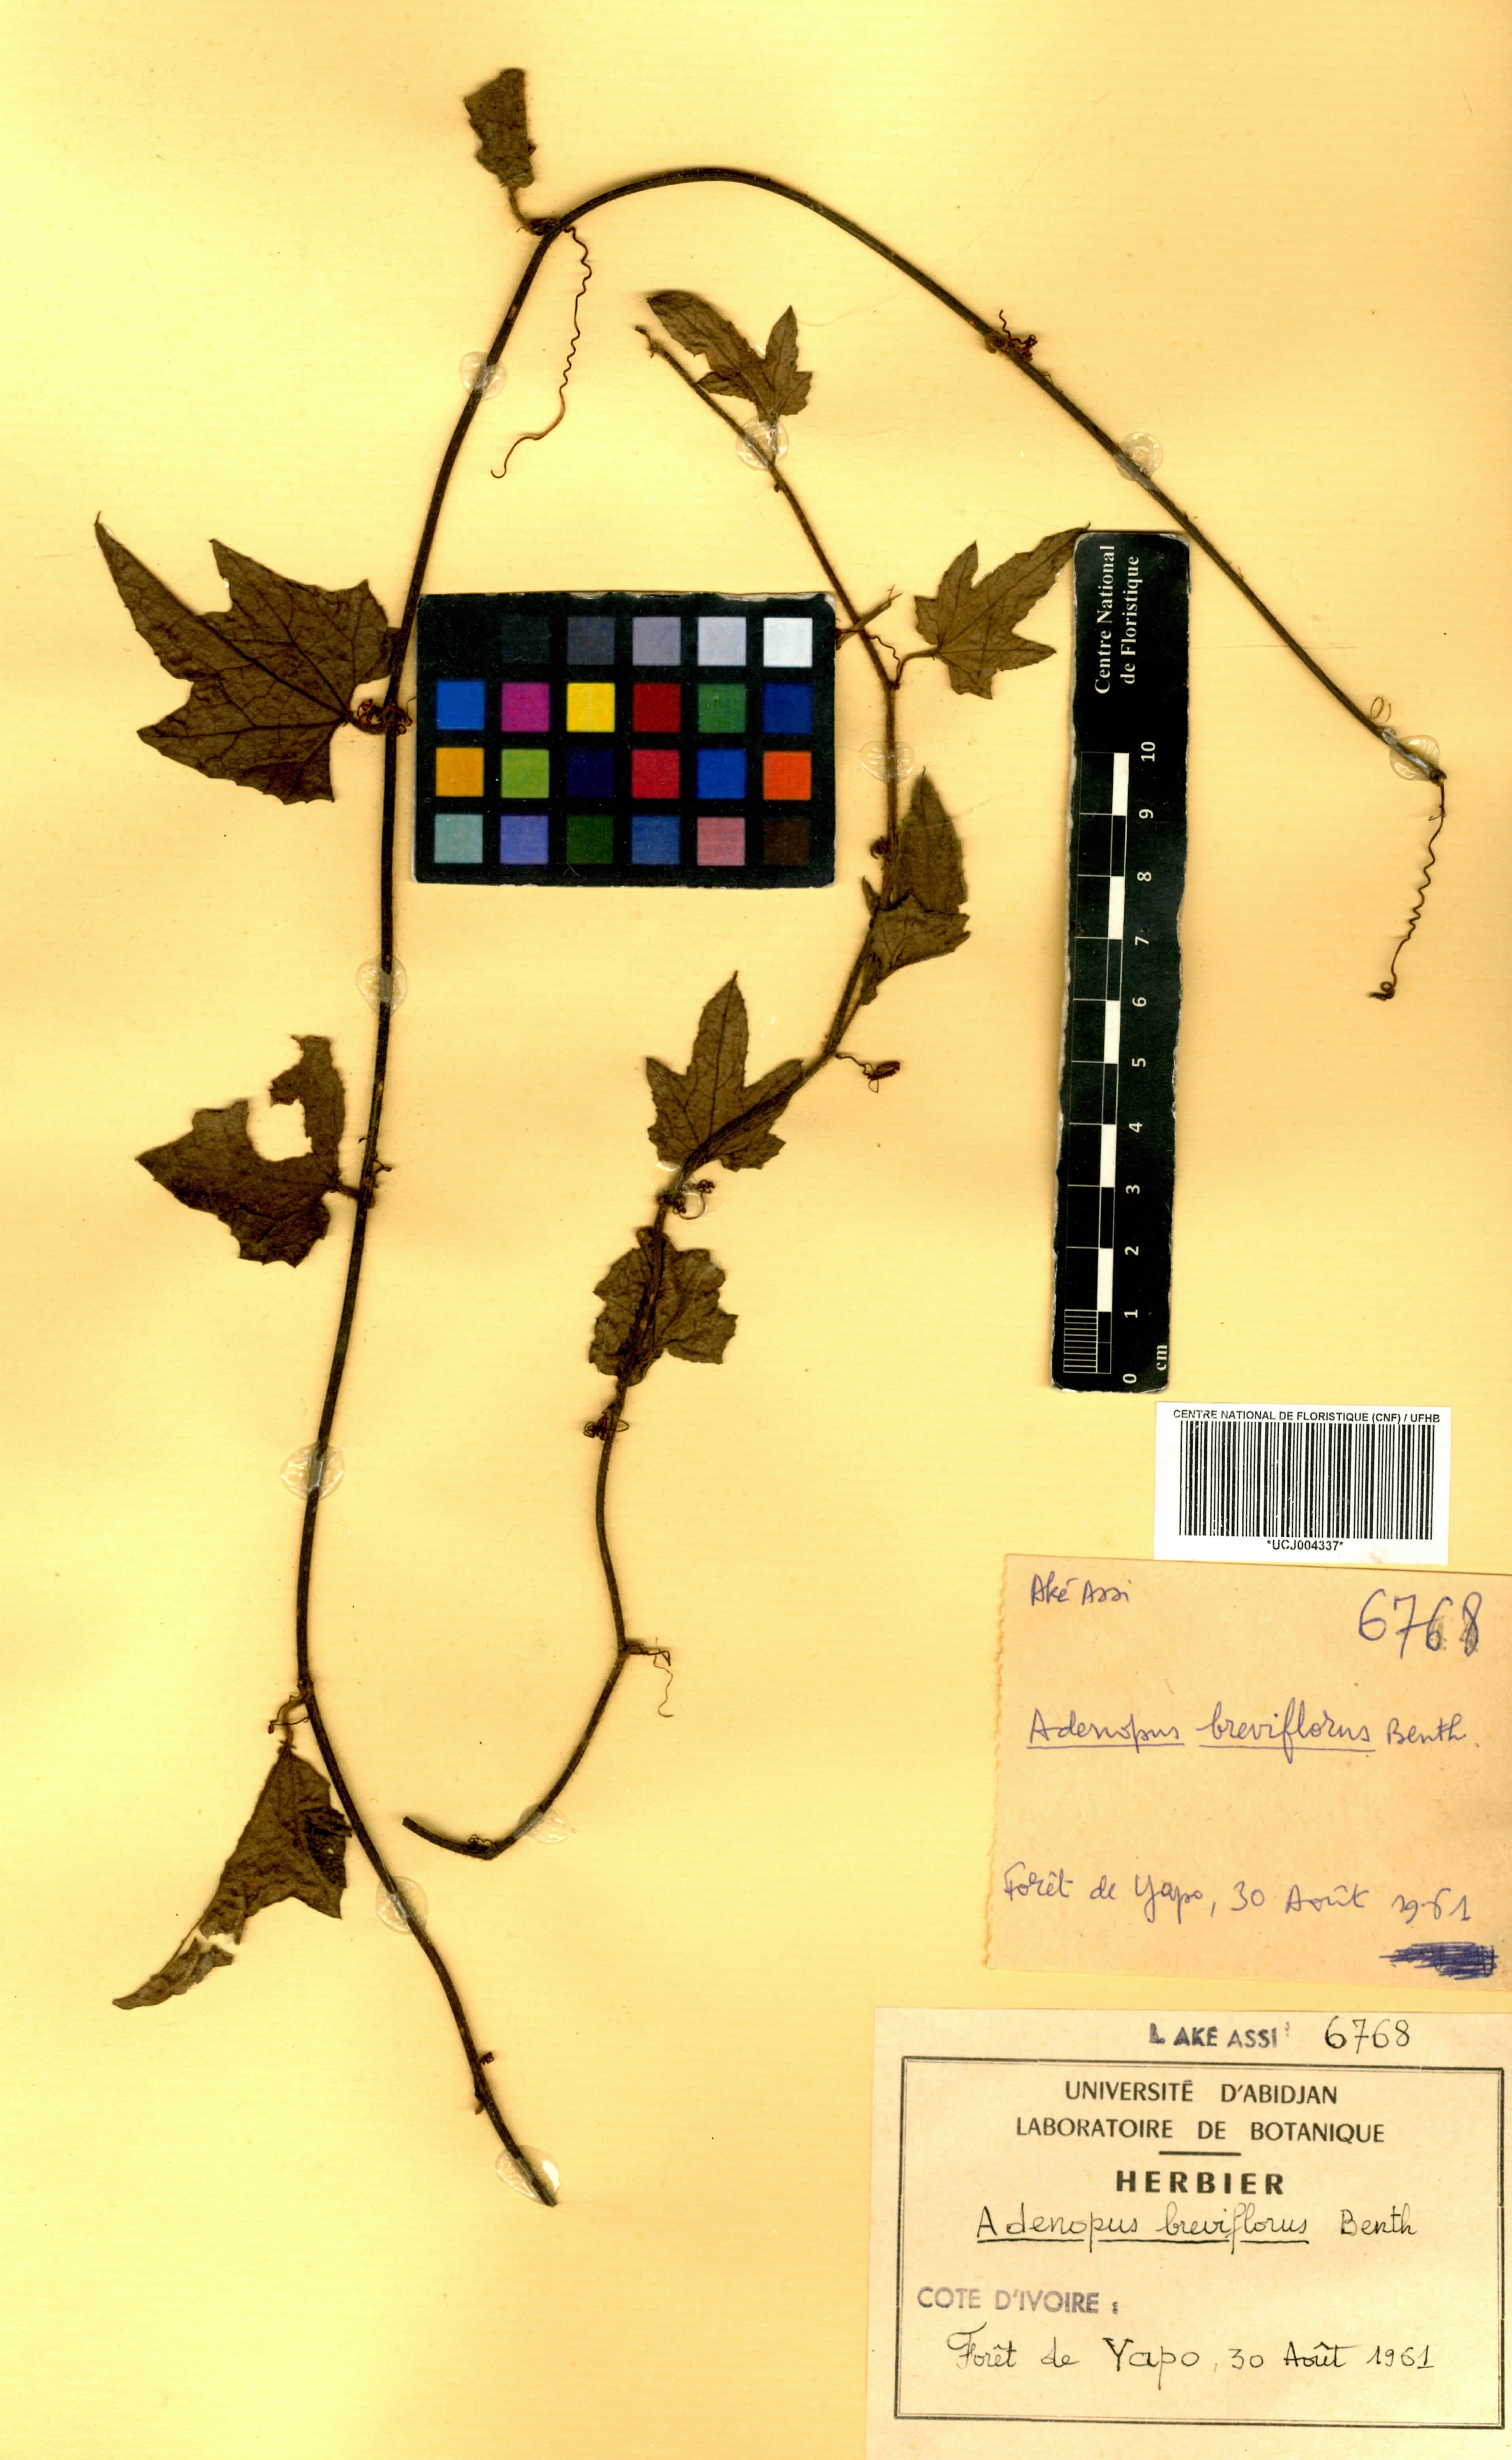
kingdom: Plantae
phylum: Tracheophyta
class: Magnoliopsida
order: Cucurbitales
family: Cucurbitaceae
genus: Lagenaria
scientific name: Lagenaria breviflora
